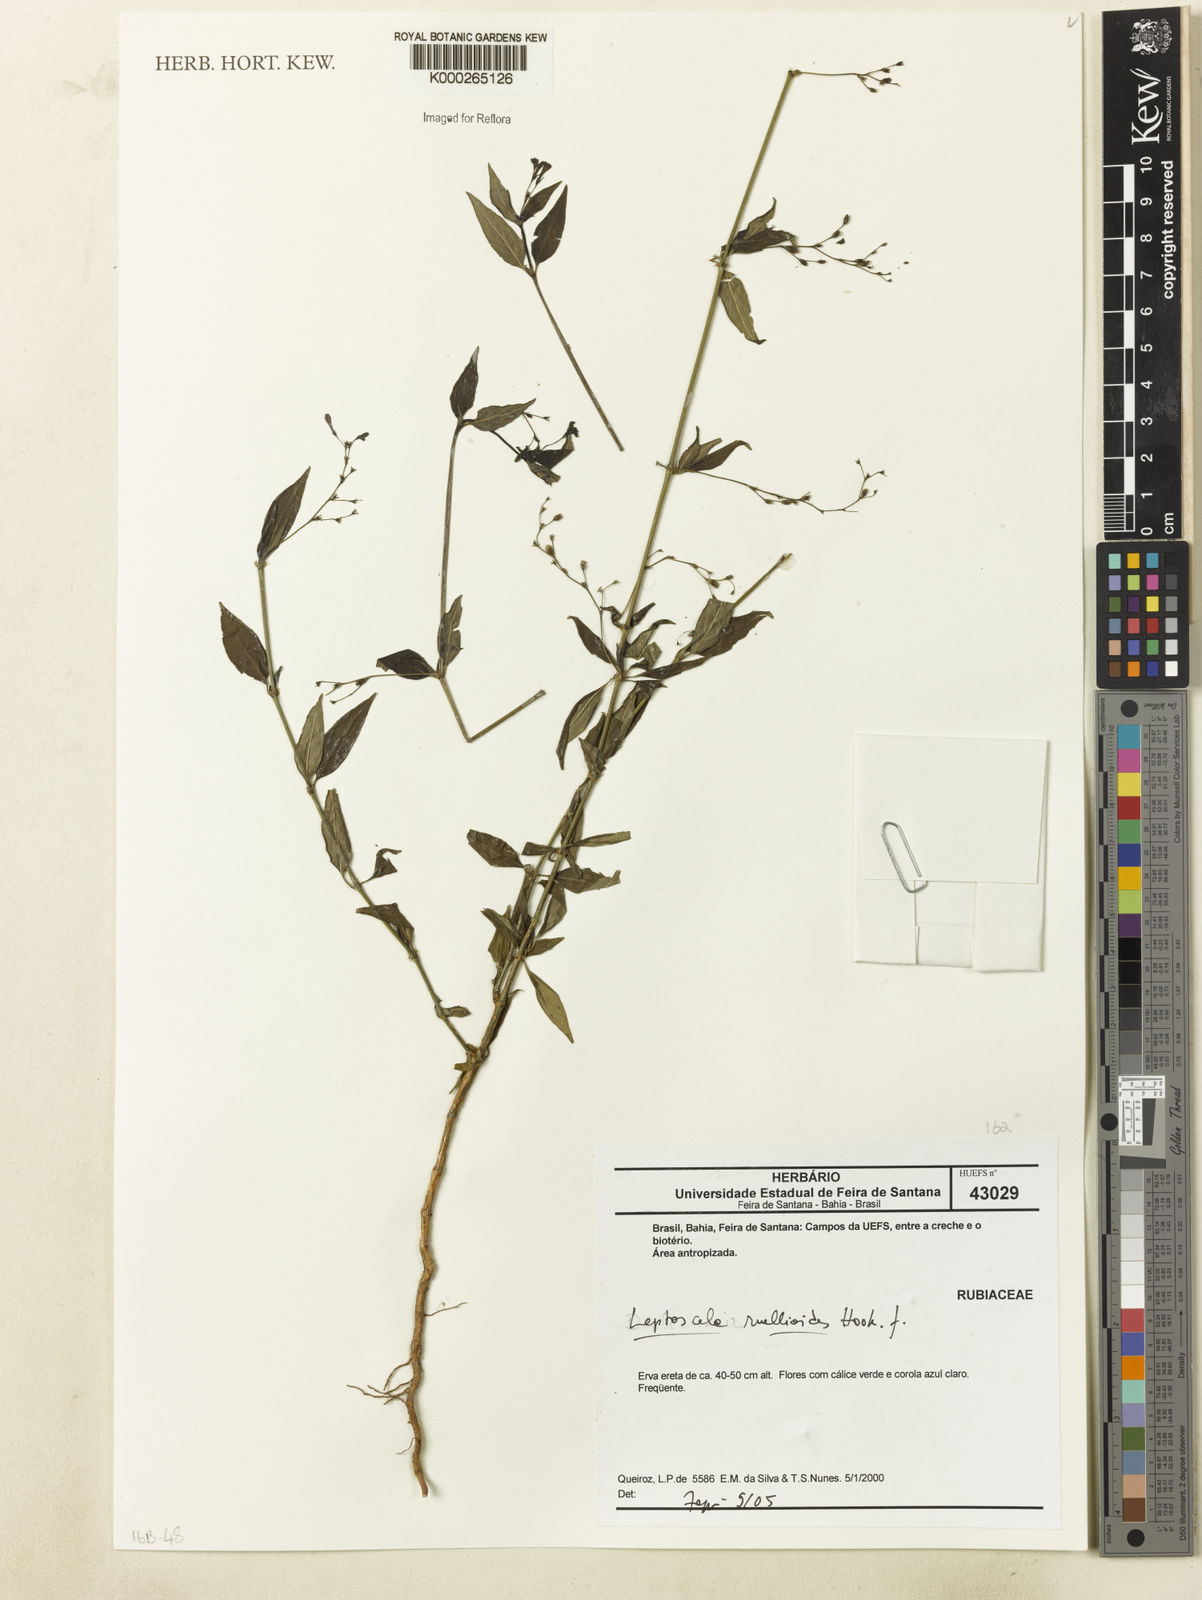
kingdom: Plantae
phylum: Tracheophyta
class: Magnoliopsida
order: Gentianales
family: Rubiaceae
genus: Leptoscela
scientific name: Leptoscela ruellioides
